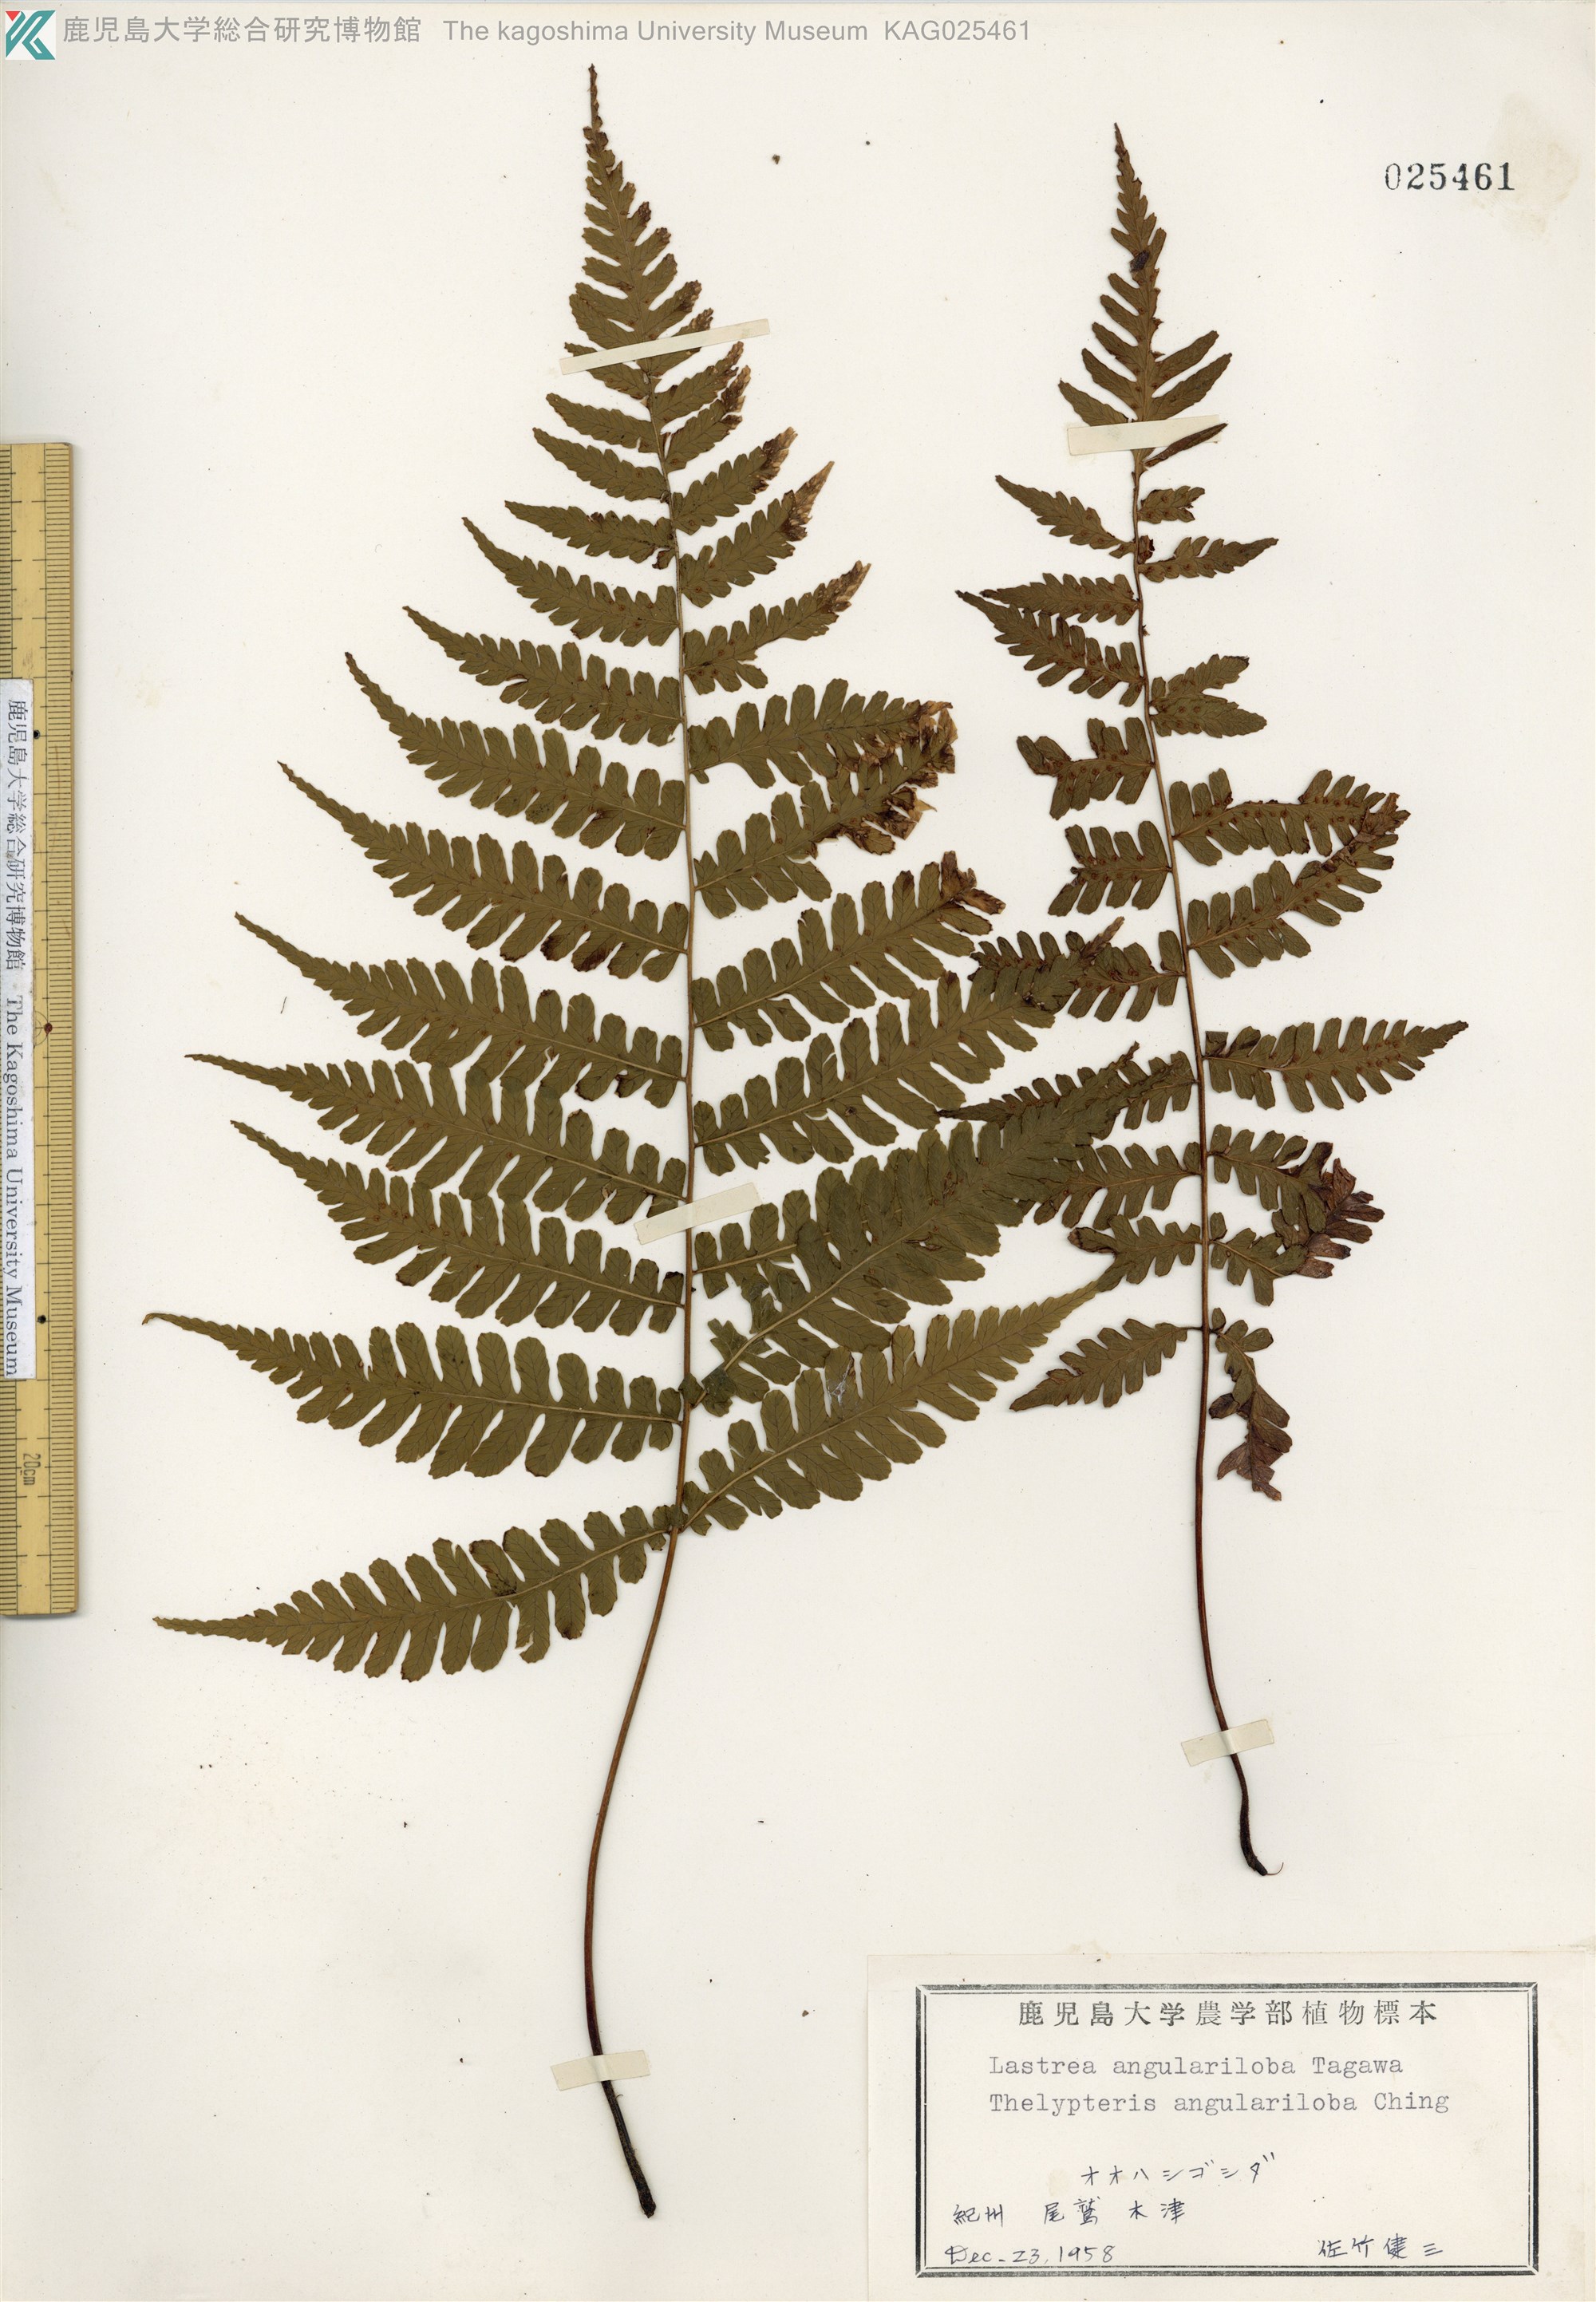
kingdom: Plantae
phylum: Tracheophyta
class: Polypodiopsida
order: Polypodiales
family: Thelypteridaceae
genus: Coryphopteris
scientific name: Coryphopteris hirsutipes
